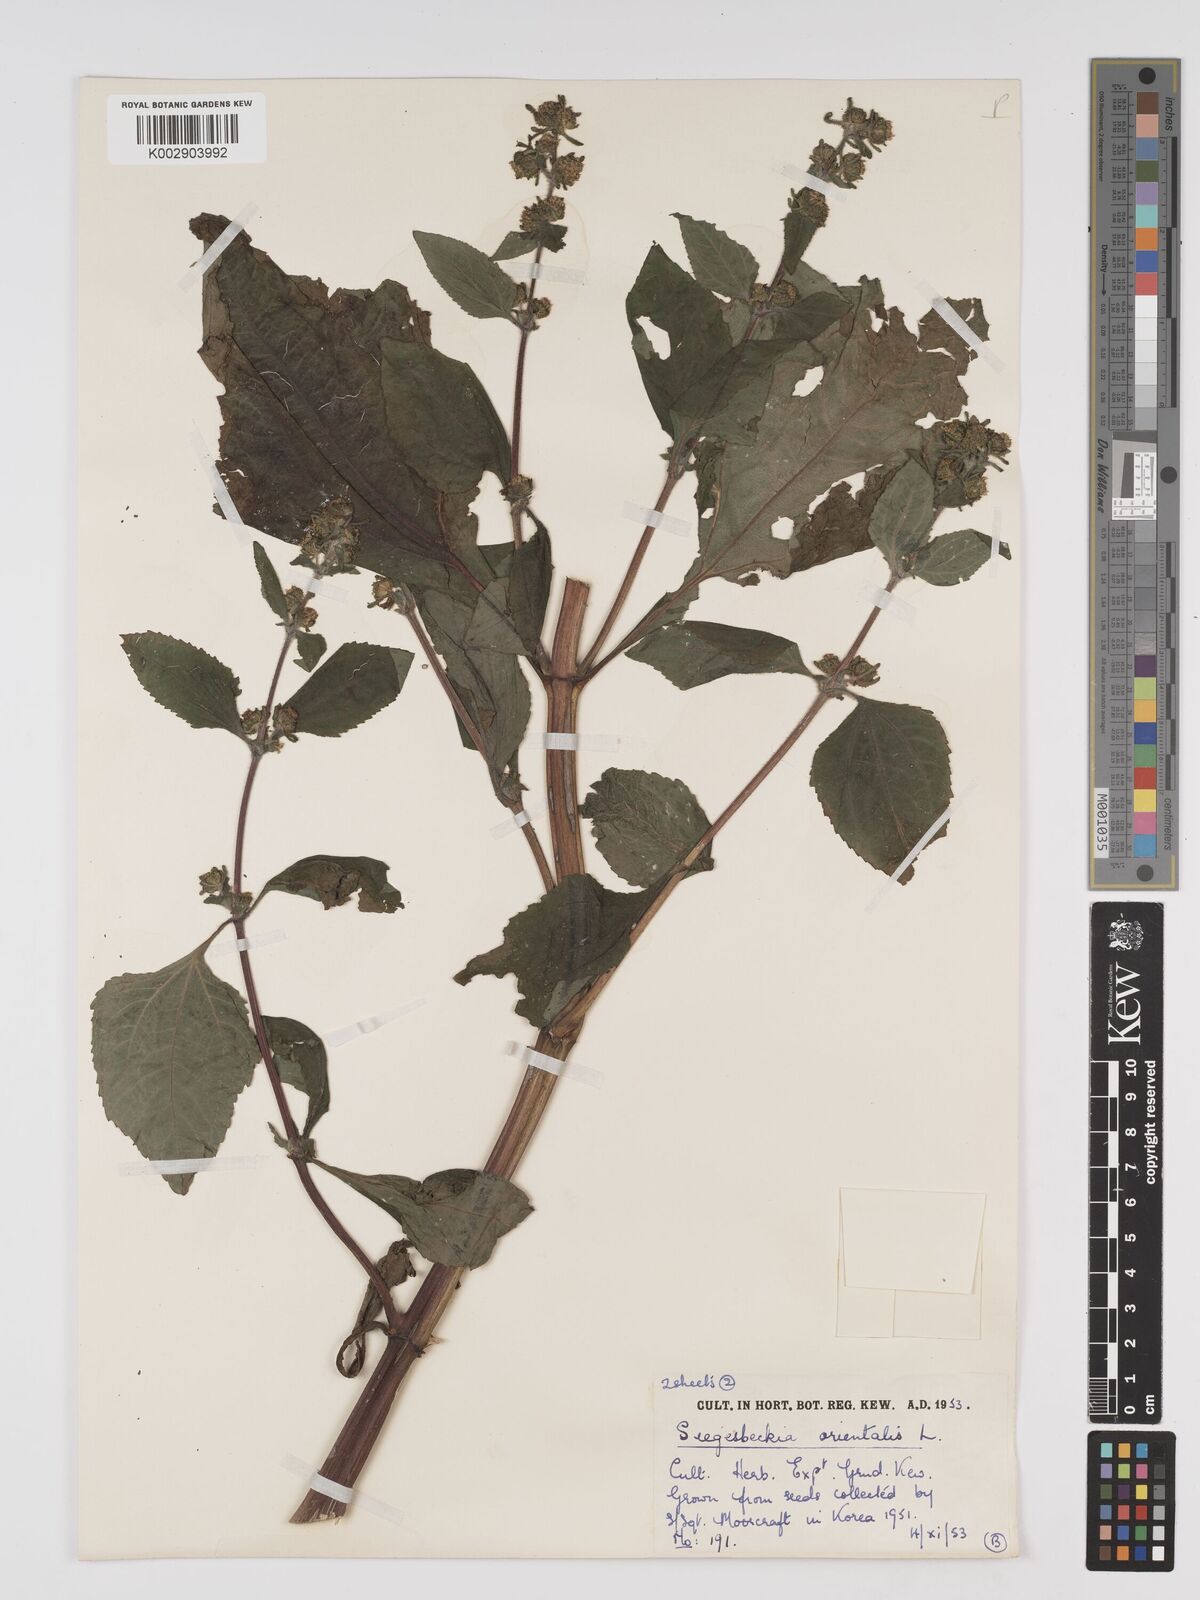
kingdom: Plantae
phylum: Tracheophyta
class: Magnoliopsida
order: Asterales
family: Asteraceae
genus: Sigesbeckia
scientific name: Sigesbeckia orientalis
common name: Eastern st paul's-wort
